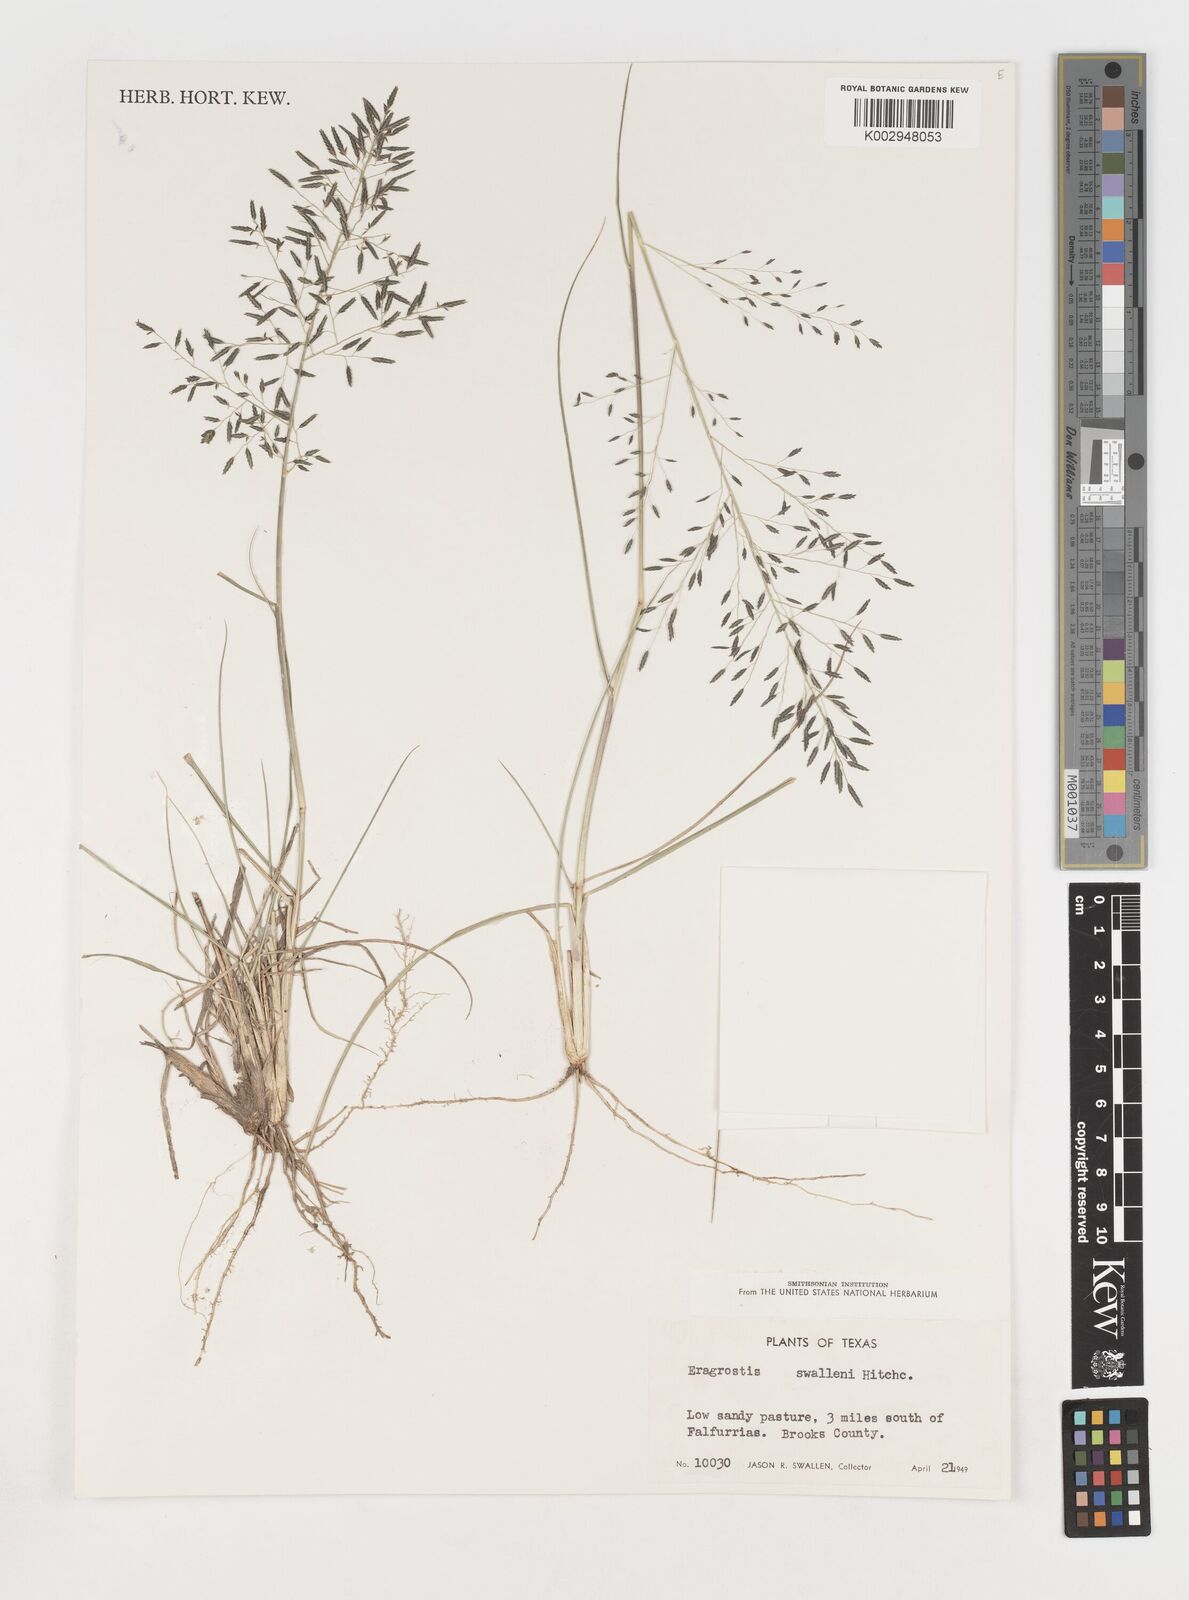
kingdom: Plantae
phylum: Tracheophyta
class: Liliopsida
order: Poales
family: Poaceae
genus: Eragrostis
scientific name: Eragrostis swallenii
